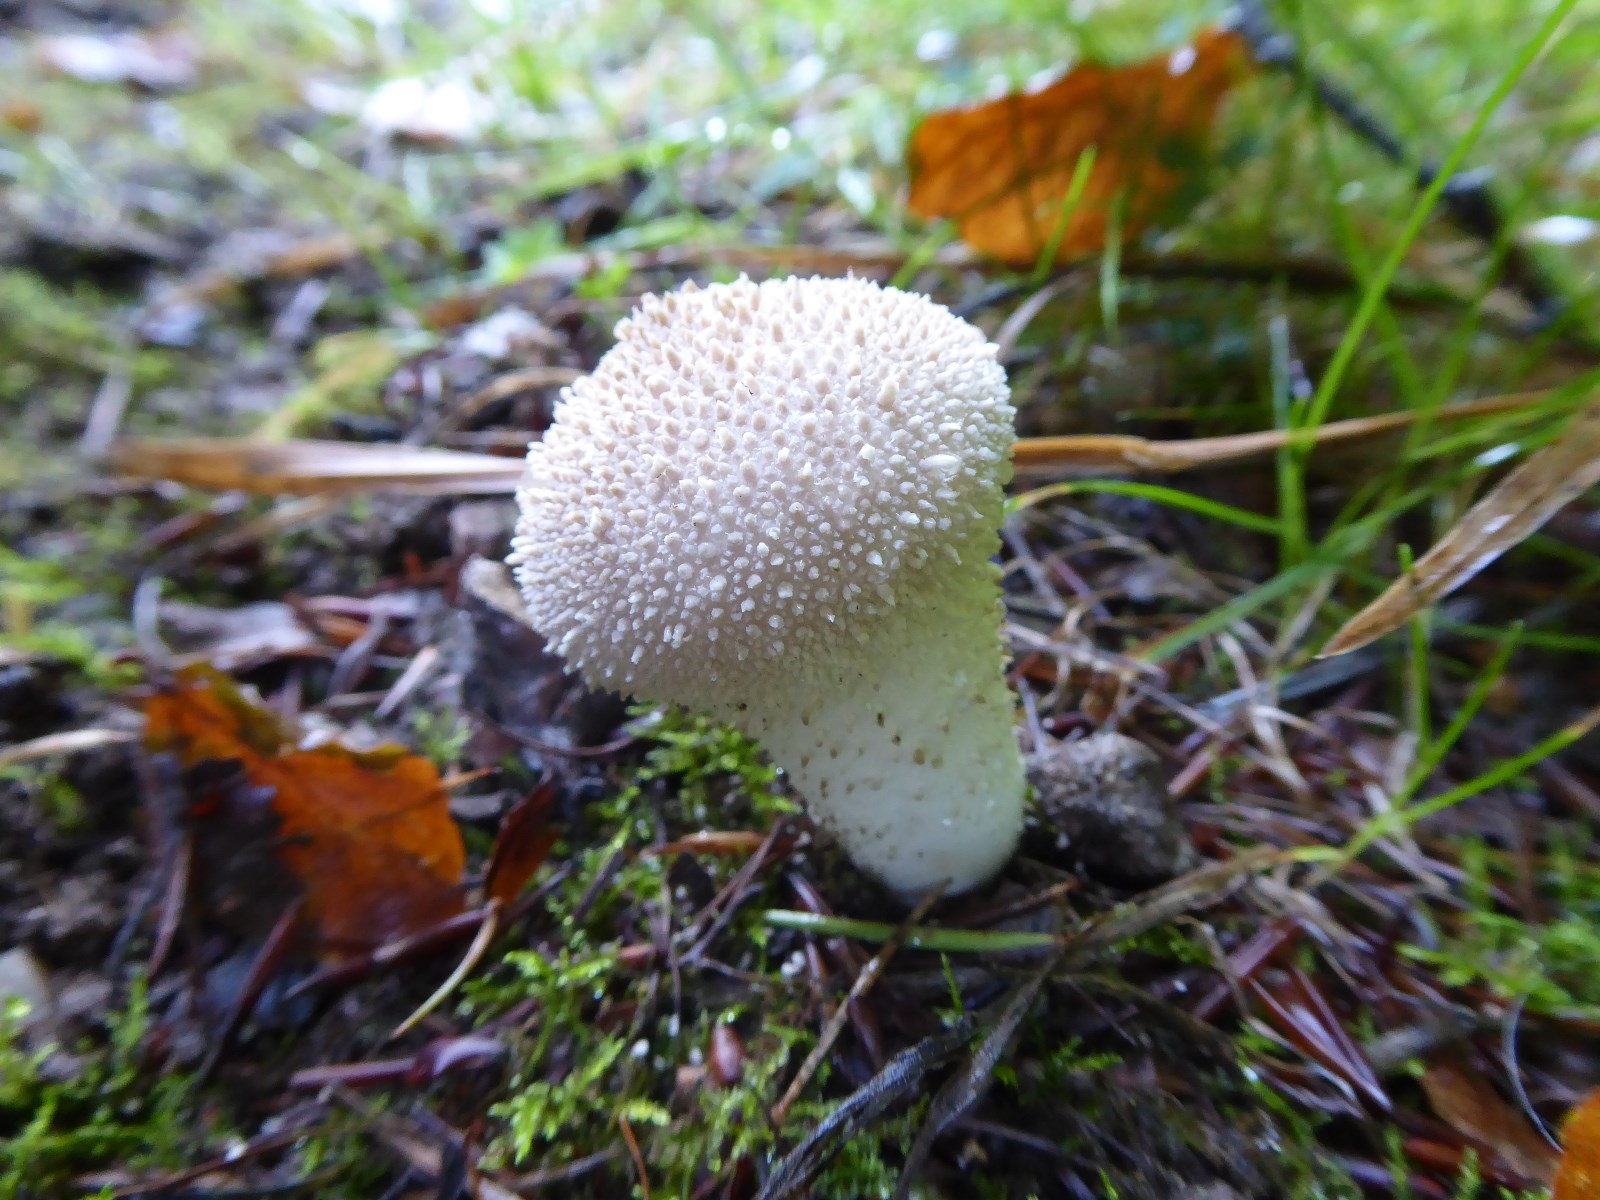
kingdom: Fungi
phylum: Basidiomycota
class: Agaricomycetes
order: Agaricales
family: Lycoperdaceae
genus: Lycoperdon
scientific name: Lycoperdon perlatum
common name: krystal-støvbold
